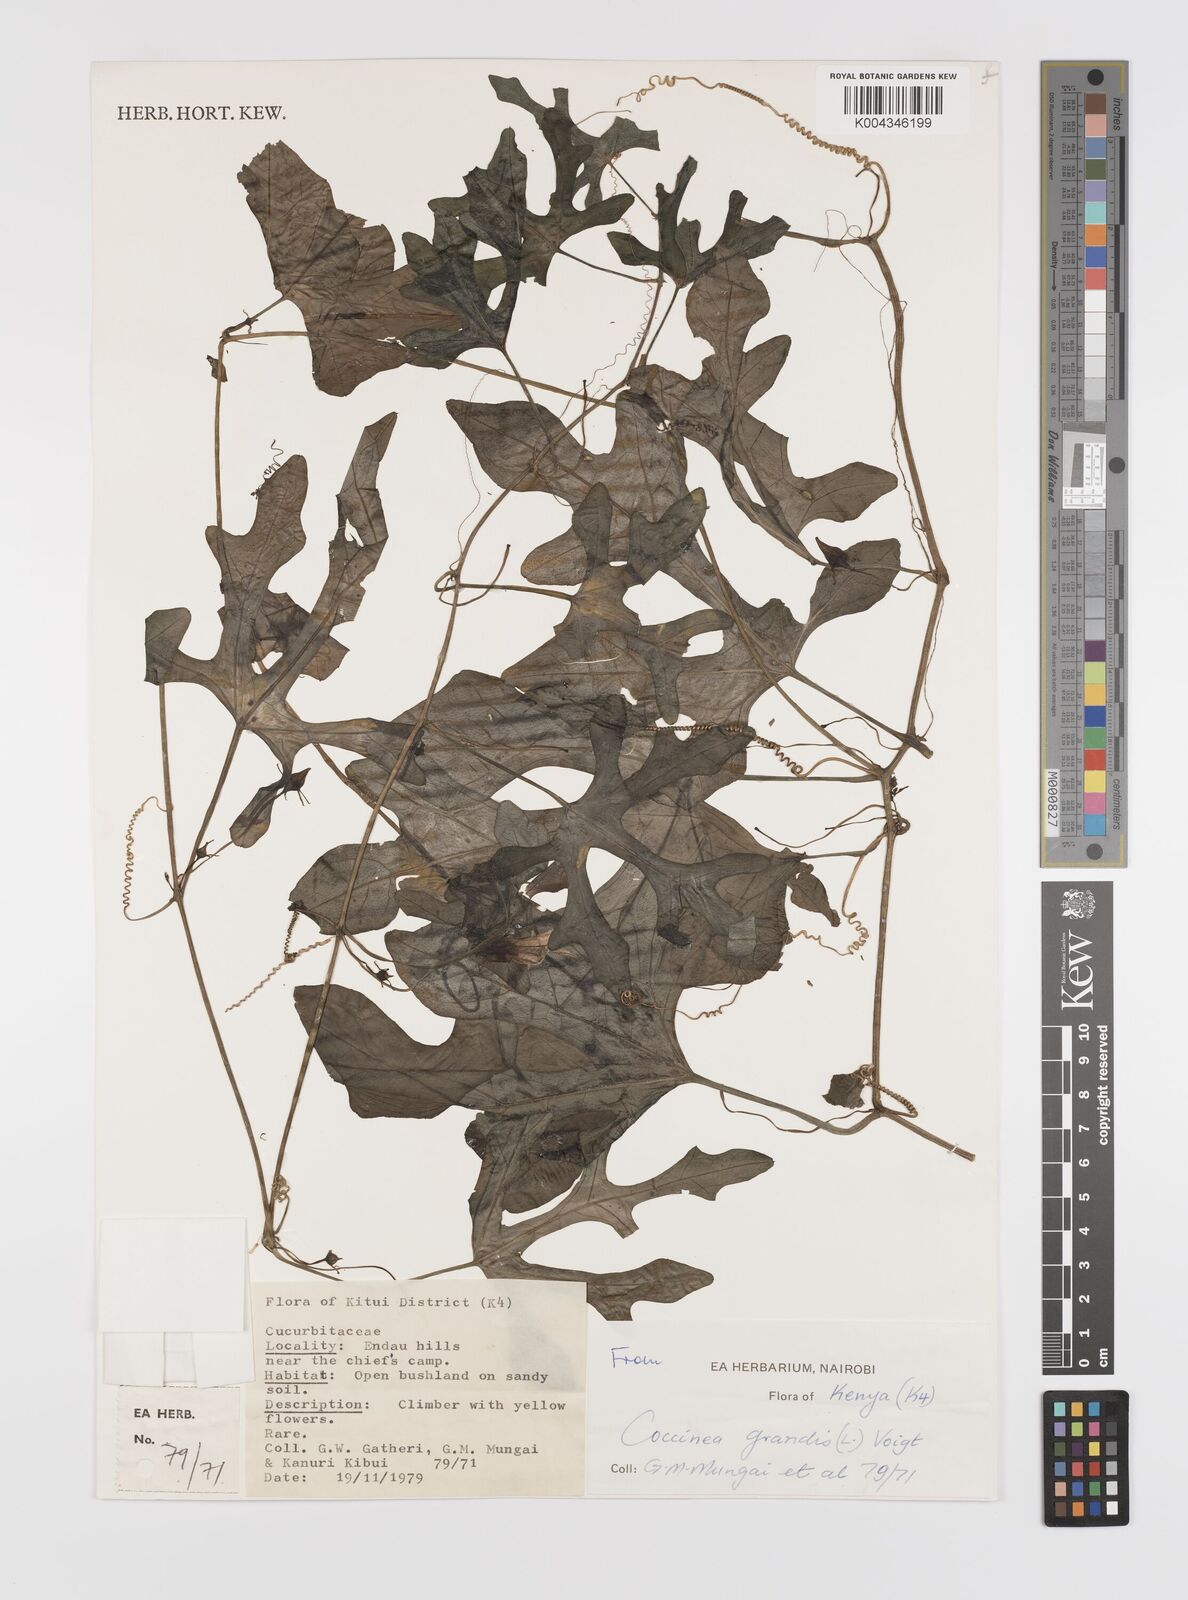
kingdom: Plantae
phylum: Tracheophyta
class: Magnoliopsida
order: Cucurbitales
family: Cucurbitaceae
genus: Coccinia
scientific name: Coccinia grandis
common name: Ivy gourd
